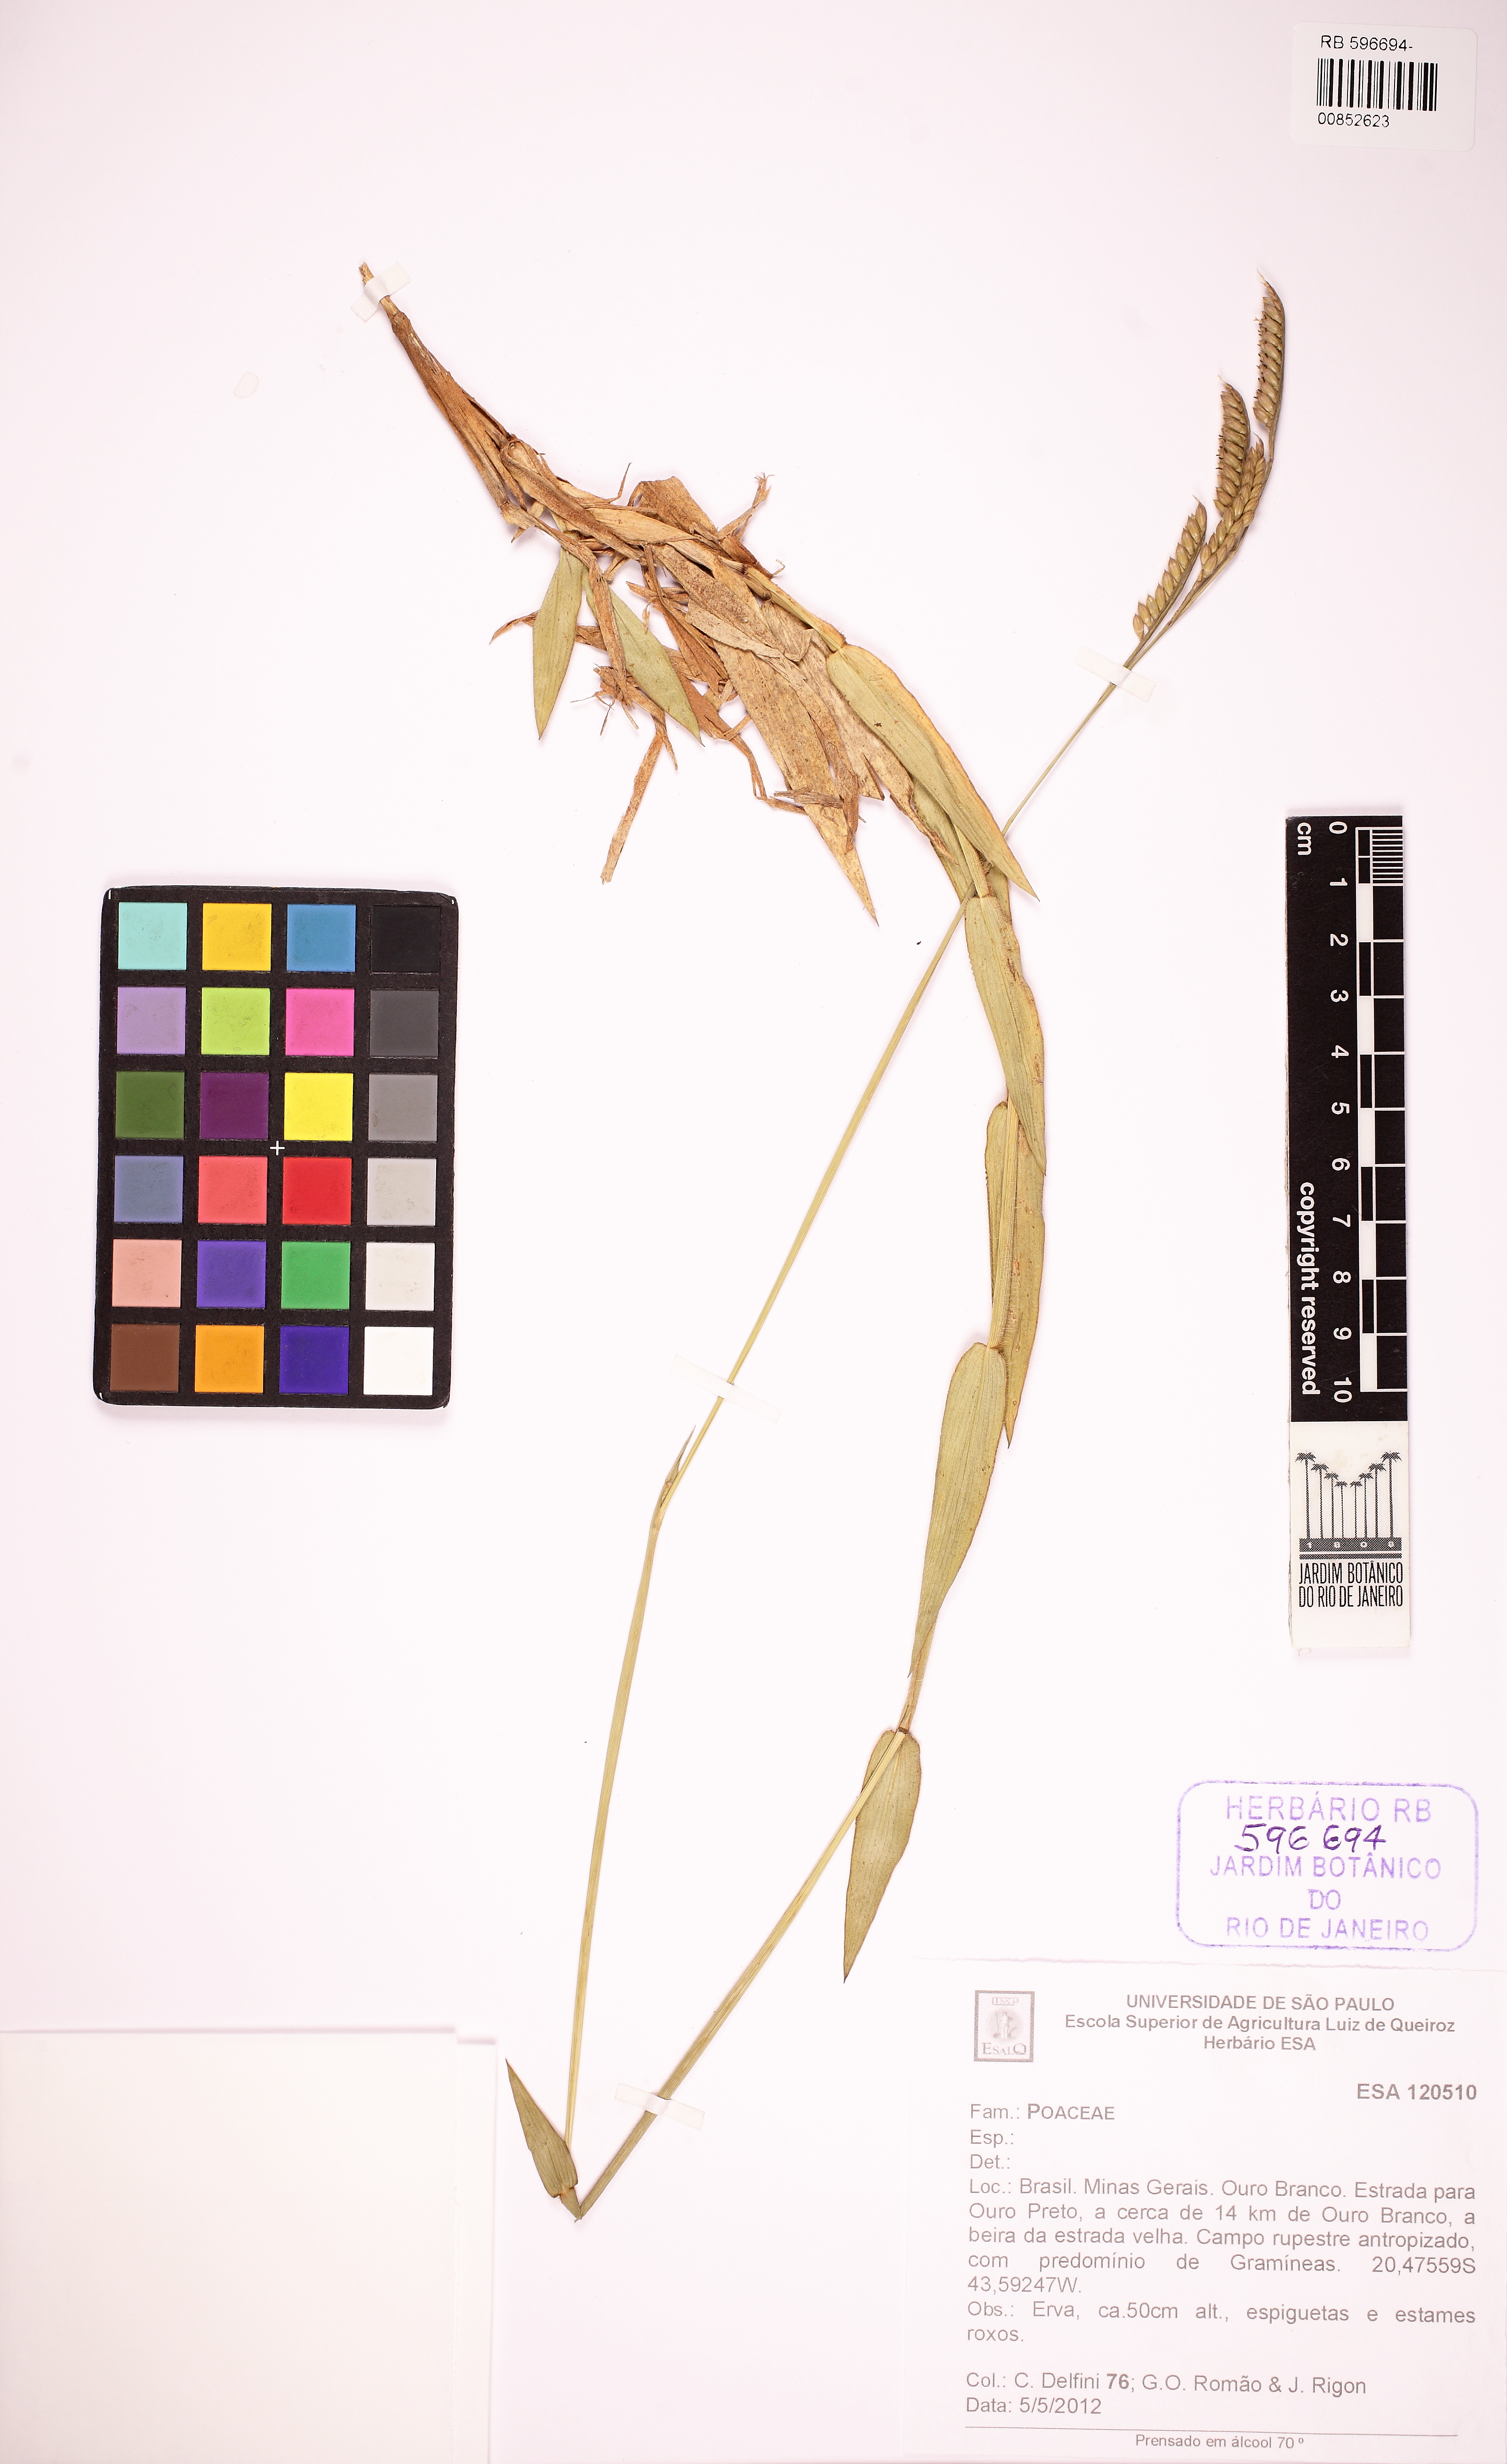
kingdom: Plantae
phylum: Tracheophyta
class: Liliopsida
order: Poales
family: Poaceae
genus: Urochloa
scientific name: Urochloa
